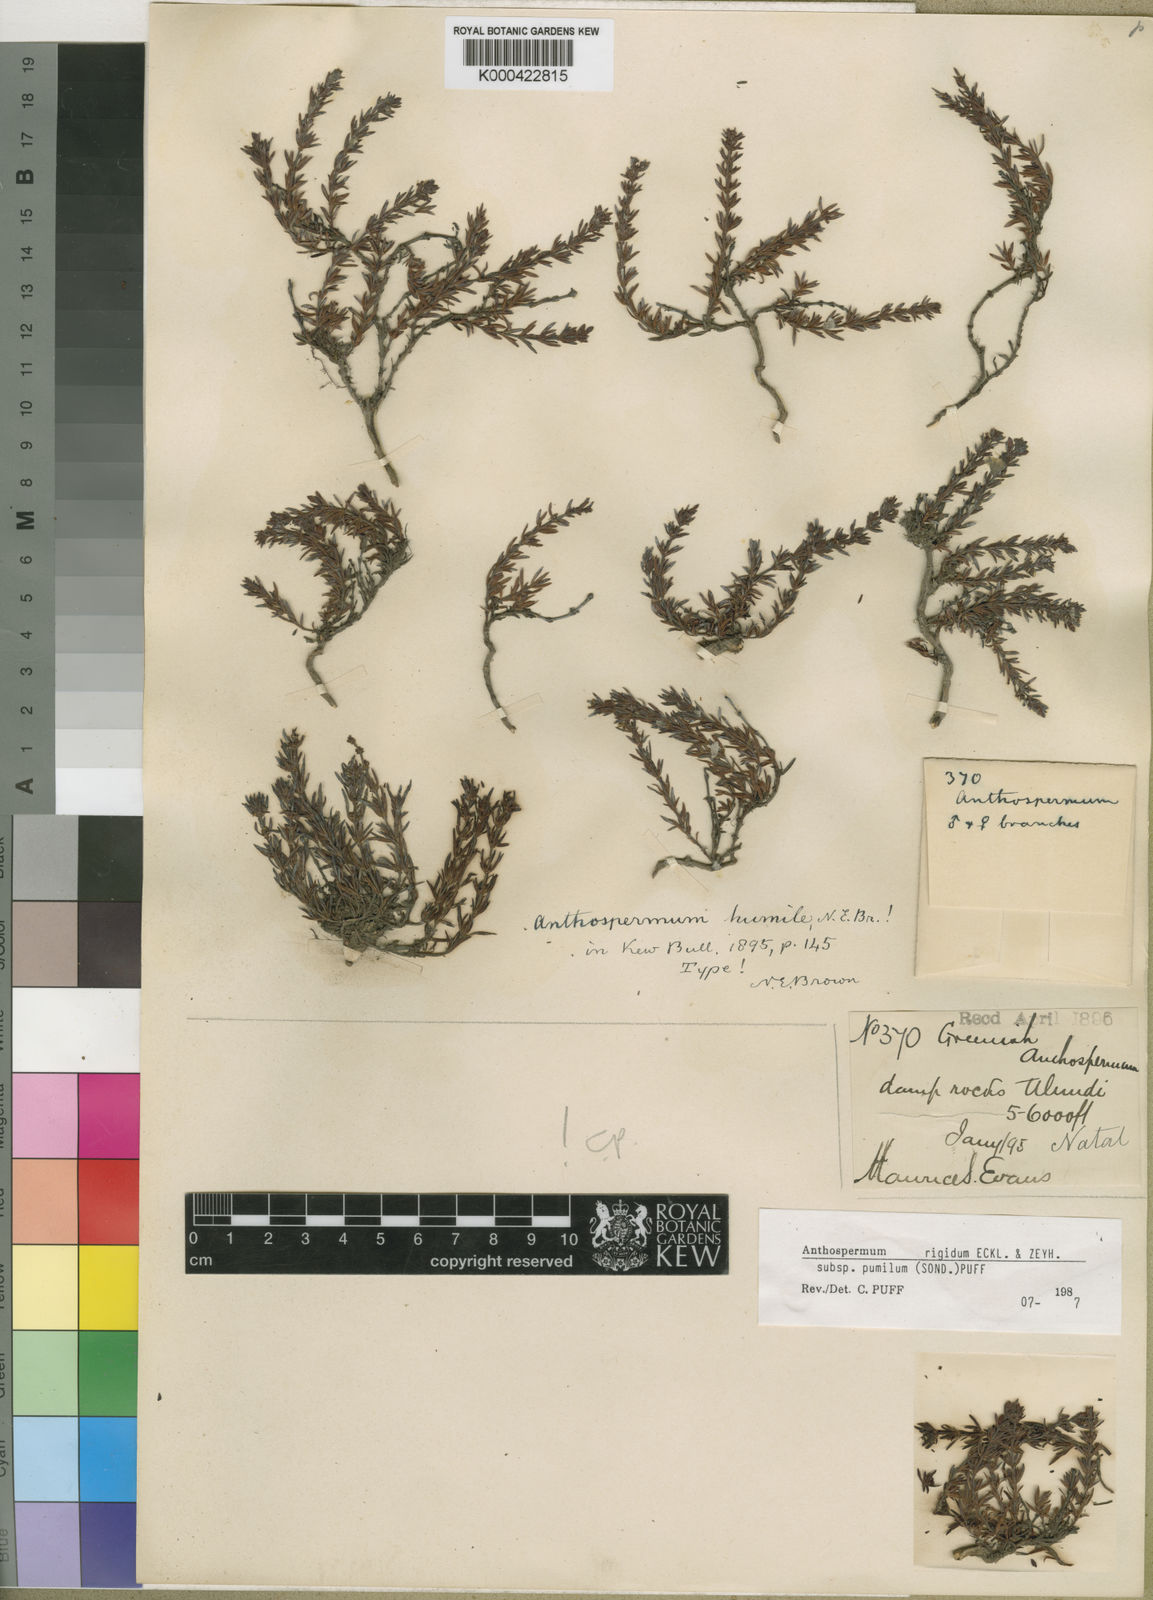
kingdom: Plantae
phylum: Tracheophyta
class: Magnoliopsida
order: Gentianales
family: Rubiaceae
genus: Anthospermum
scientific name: Anthospermum rigidum
